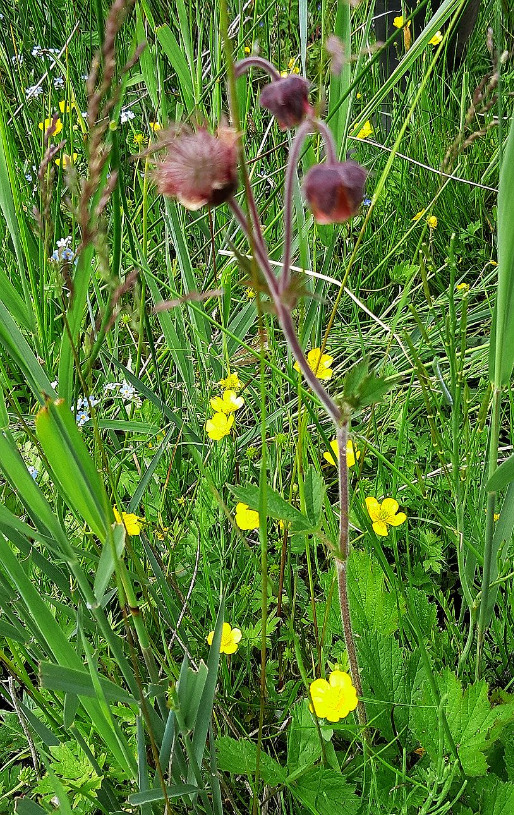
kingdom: Plantae
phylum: Tracheophyta
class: Magnoliopsida
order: Rosales
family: Rosaceae
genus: Geum
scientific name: Geum rivale
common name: Eng-nellikerod
